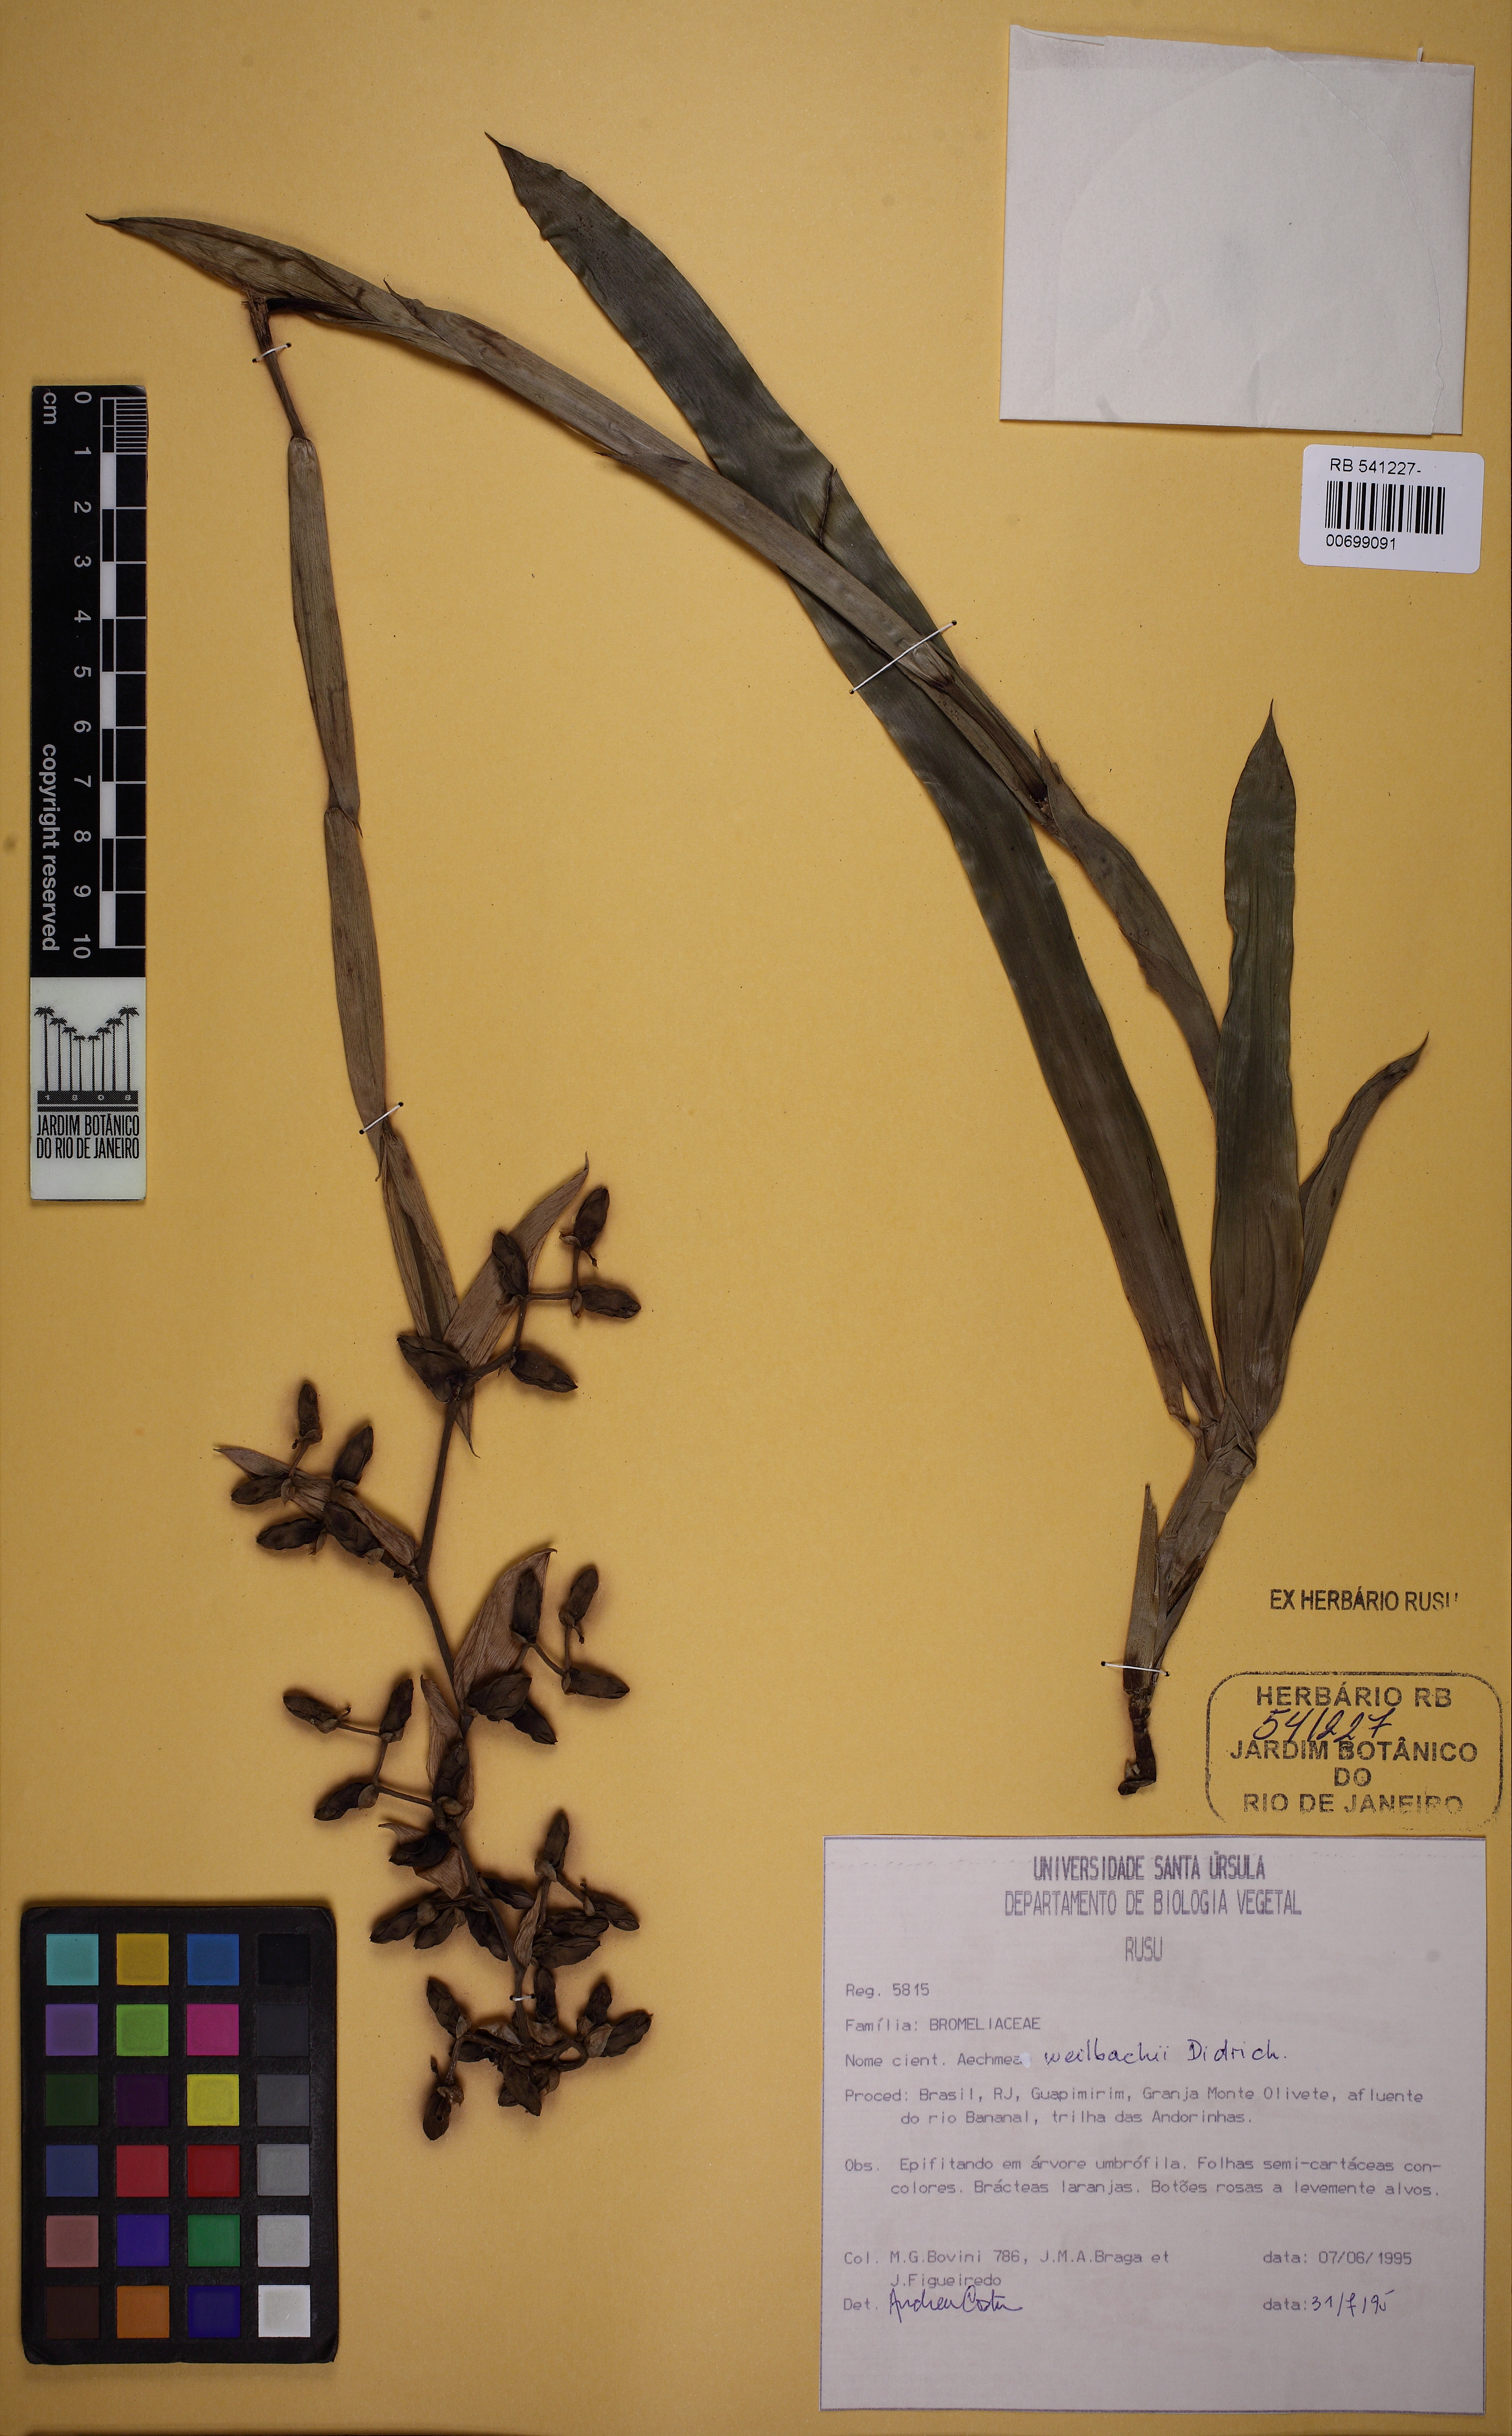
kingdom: Plantae
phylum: Tracheophyta
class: Liliopsida
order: Poales
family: Bromeliaceae
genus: Aechmea
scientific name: Aechmea weilbachii
